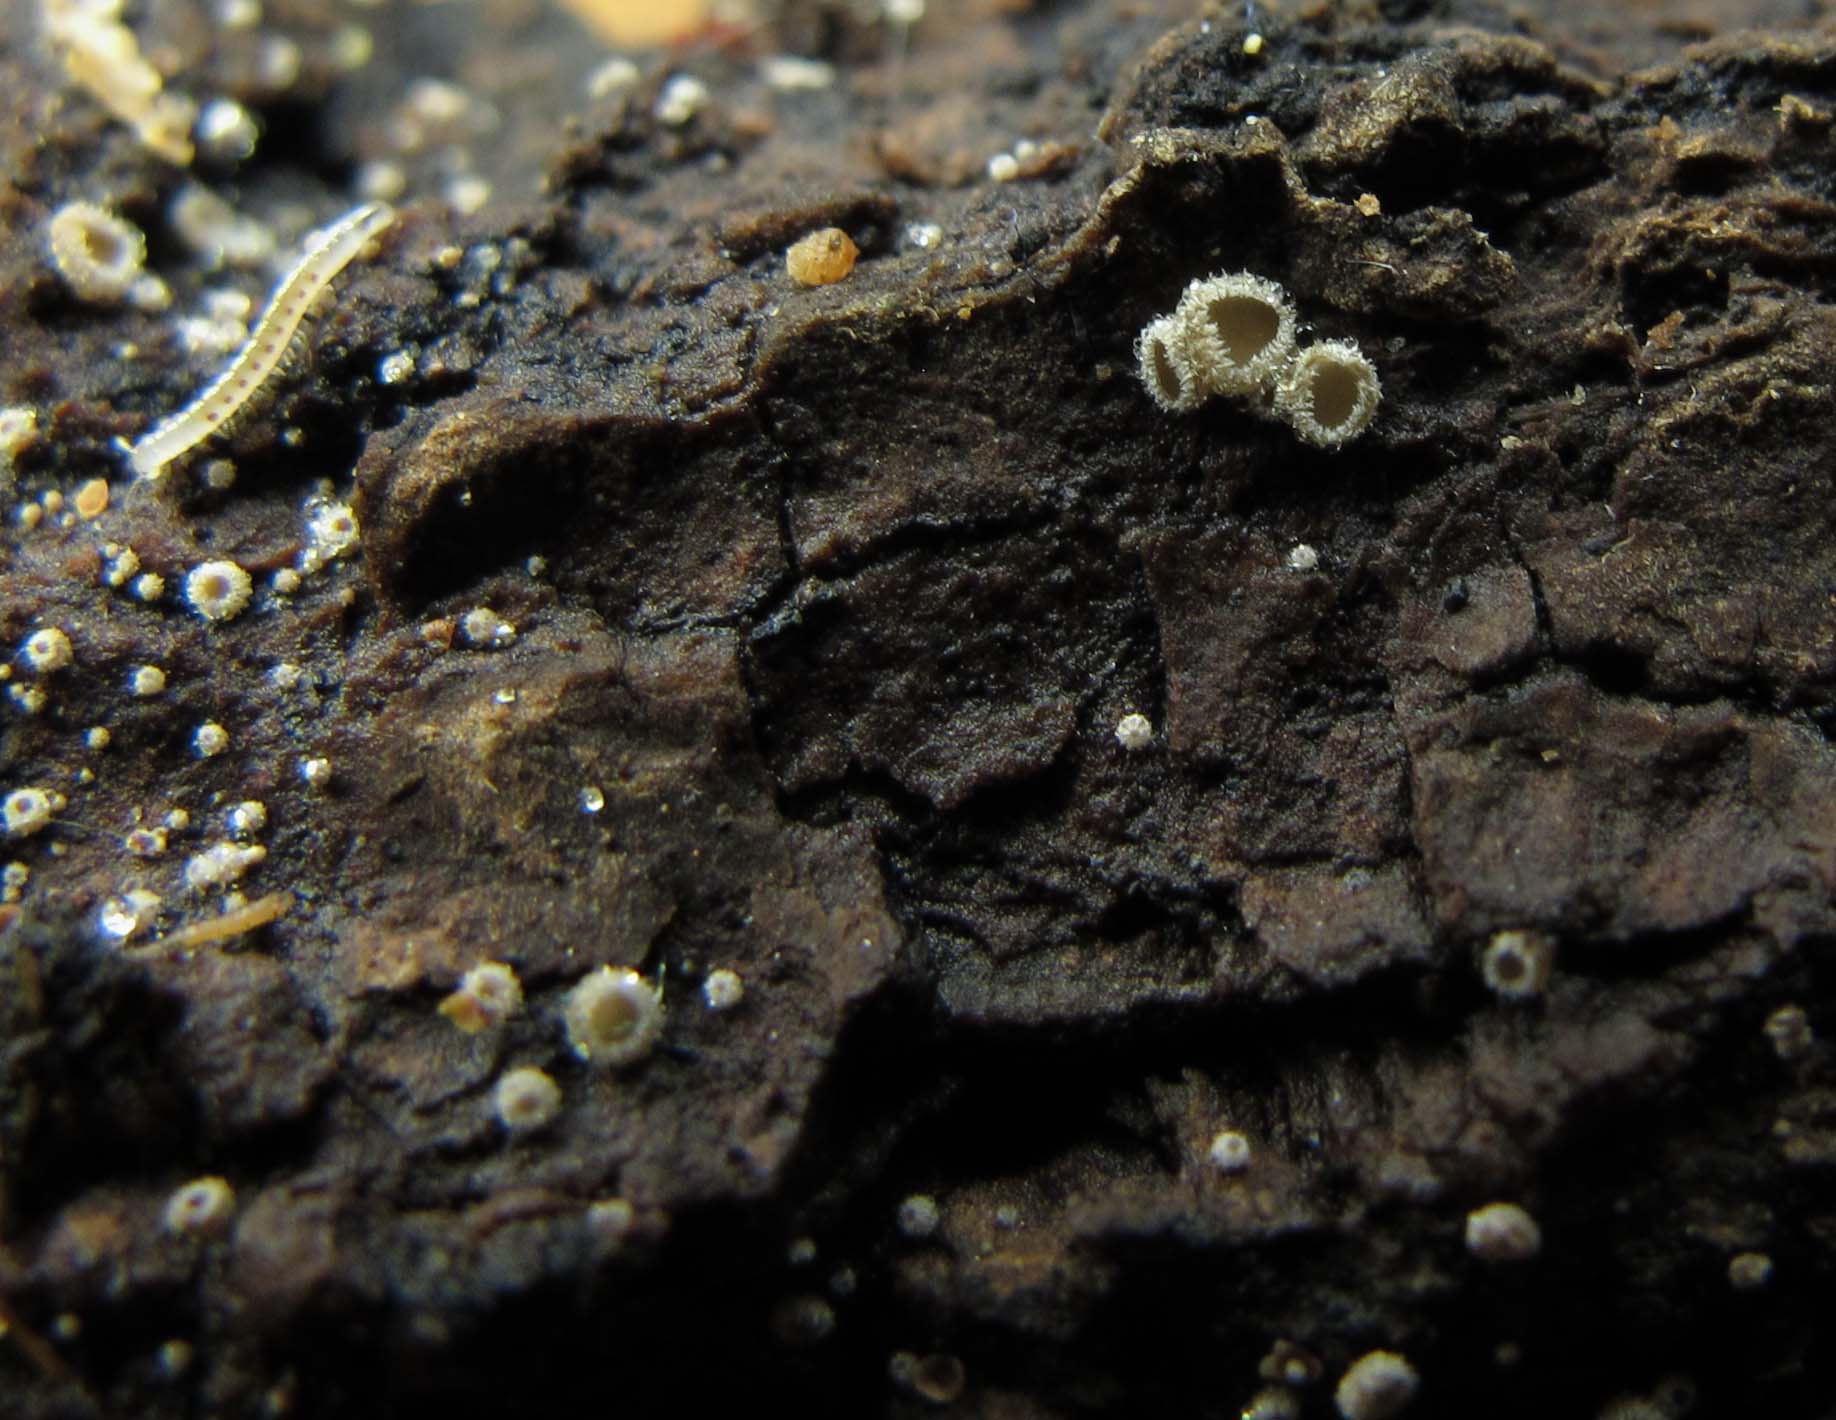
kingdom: Fungi
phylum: Ascomycota
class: Leotiomycetes
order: Helotiales
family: Lachnaceae
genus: Lachnum
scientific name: Lachnum corticale
